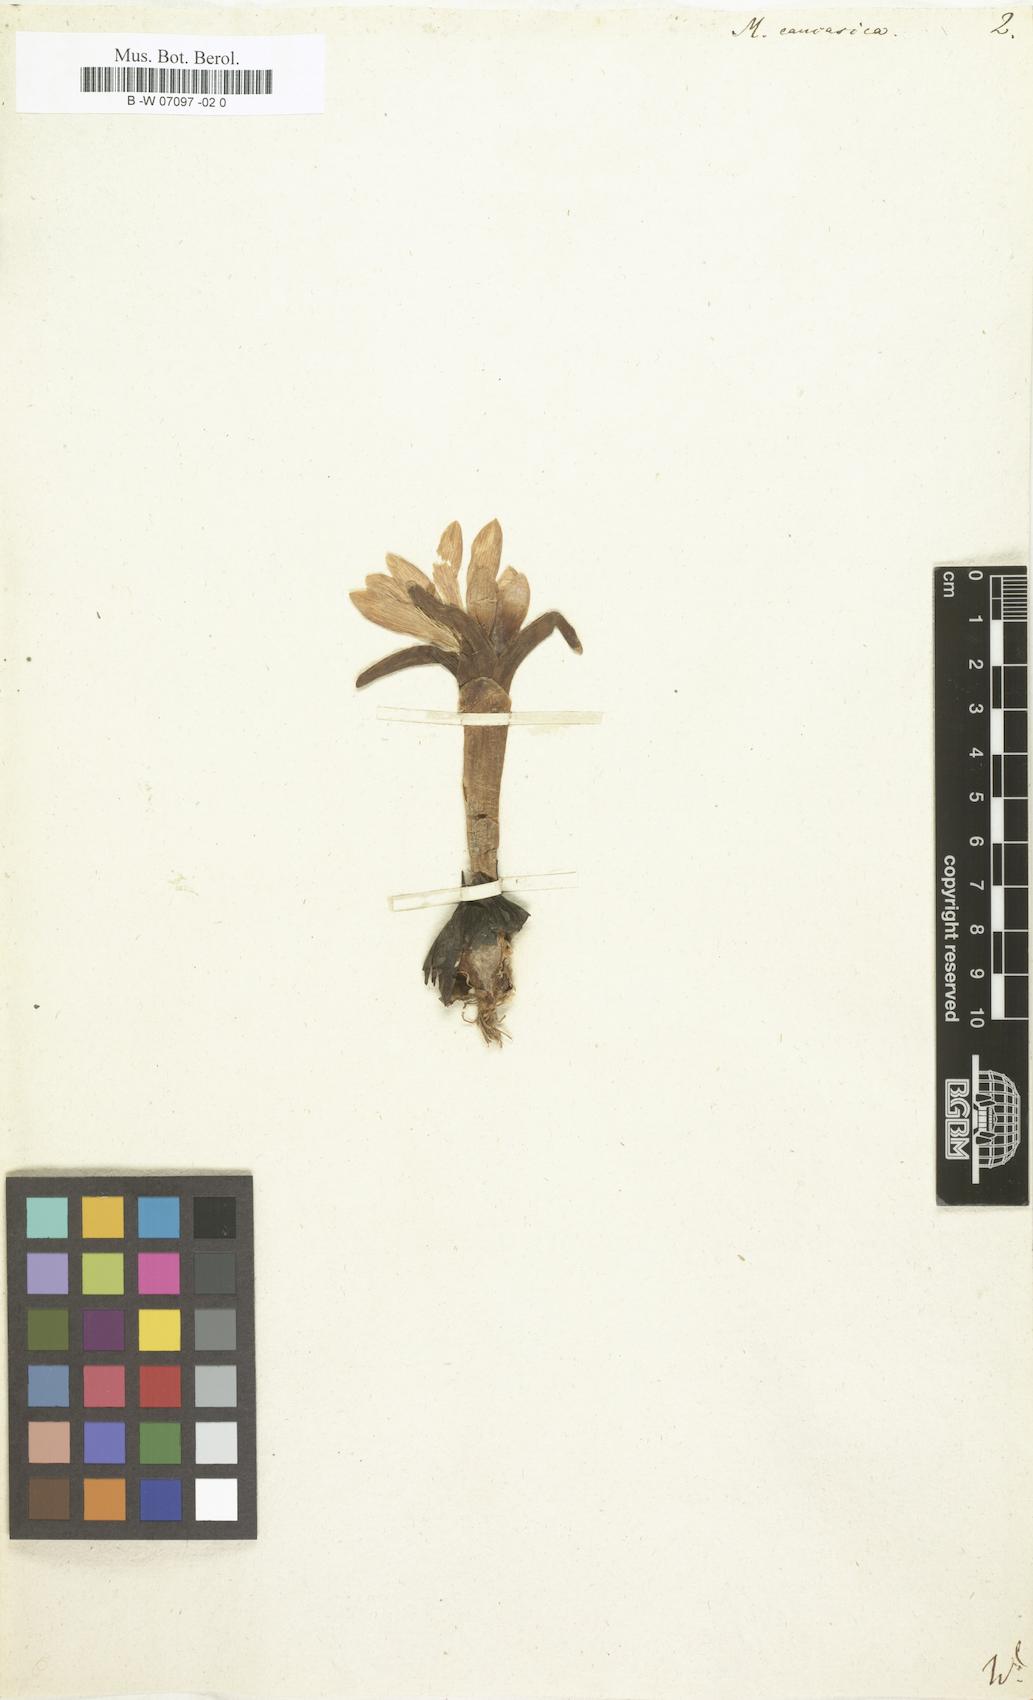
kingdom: Plantae
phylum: Tracheophyta
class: Liliopsida
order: Liliales
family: Colchicaceae
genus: Colchicum
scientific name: Colchicum trigynum
